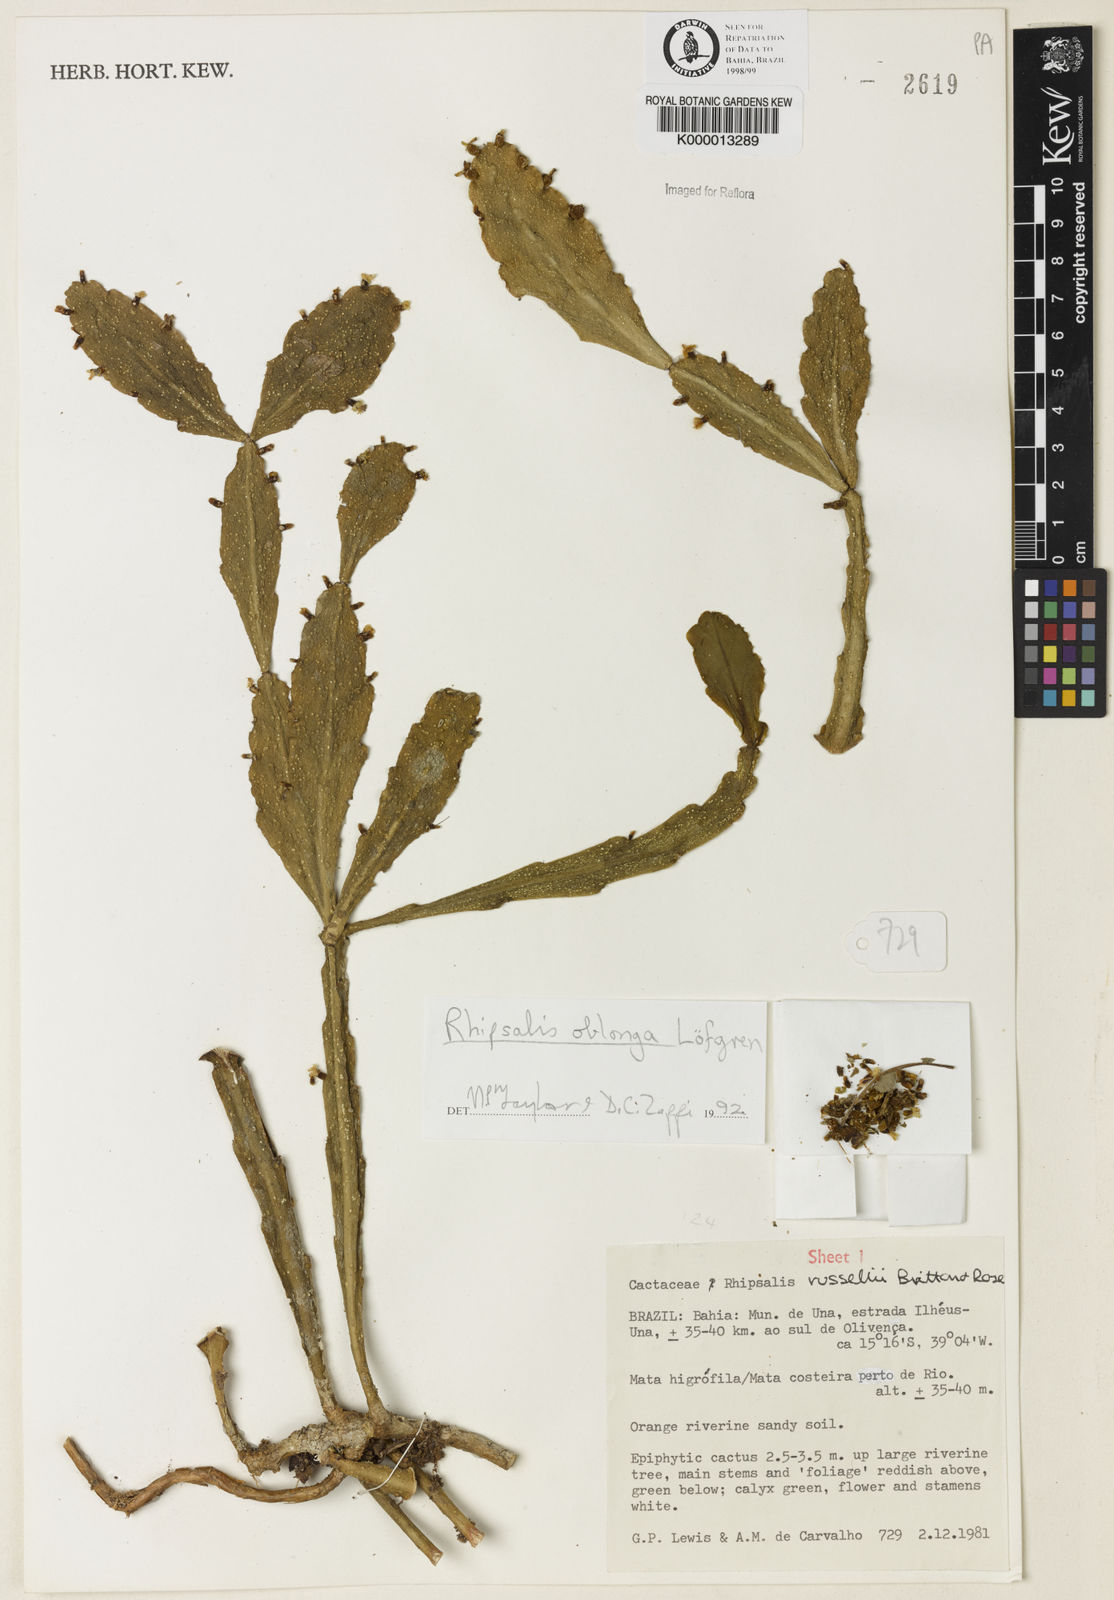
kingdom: Plantae
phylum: Tracheophyta
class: Magnoliopsida
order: Caryophyllales
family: Cactaceae
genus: Rhipsalis
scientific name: Rhipsalis
